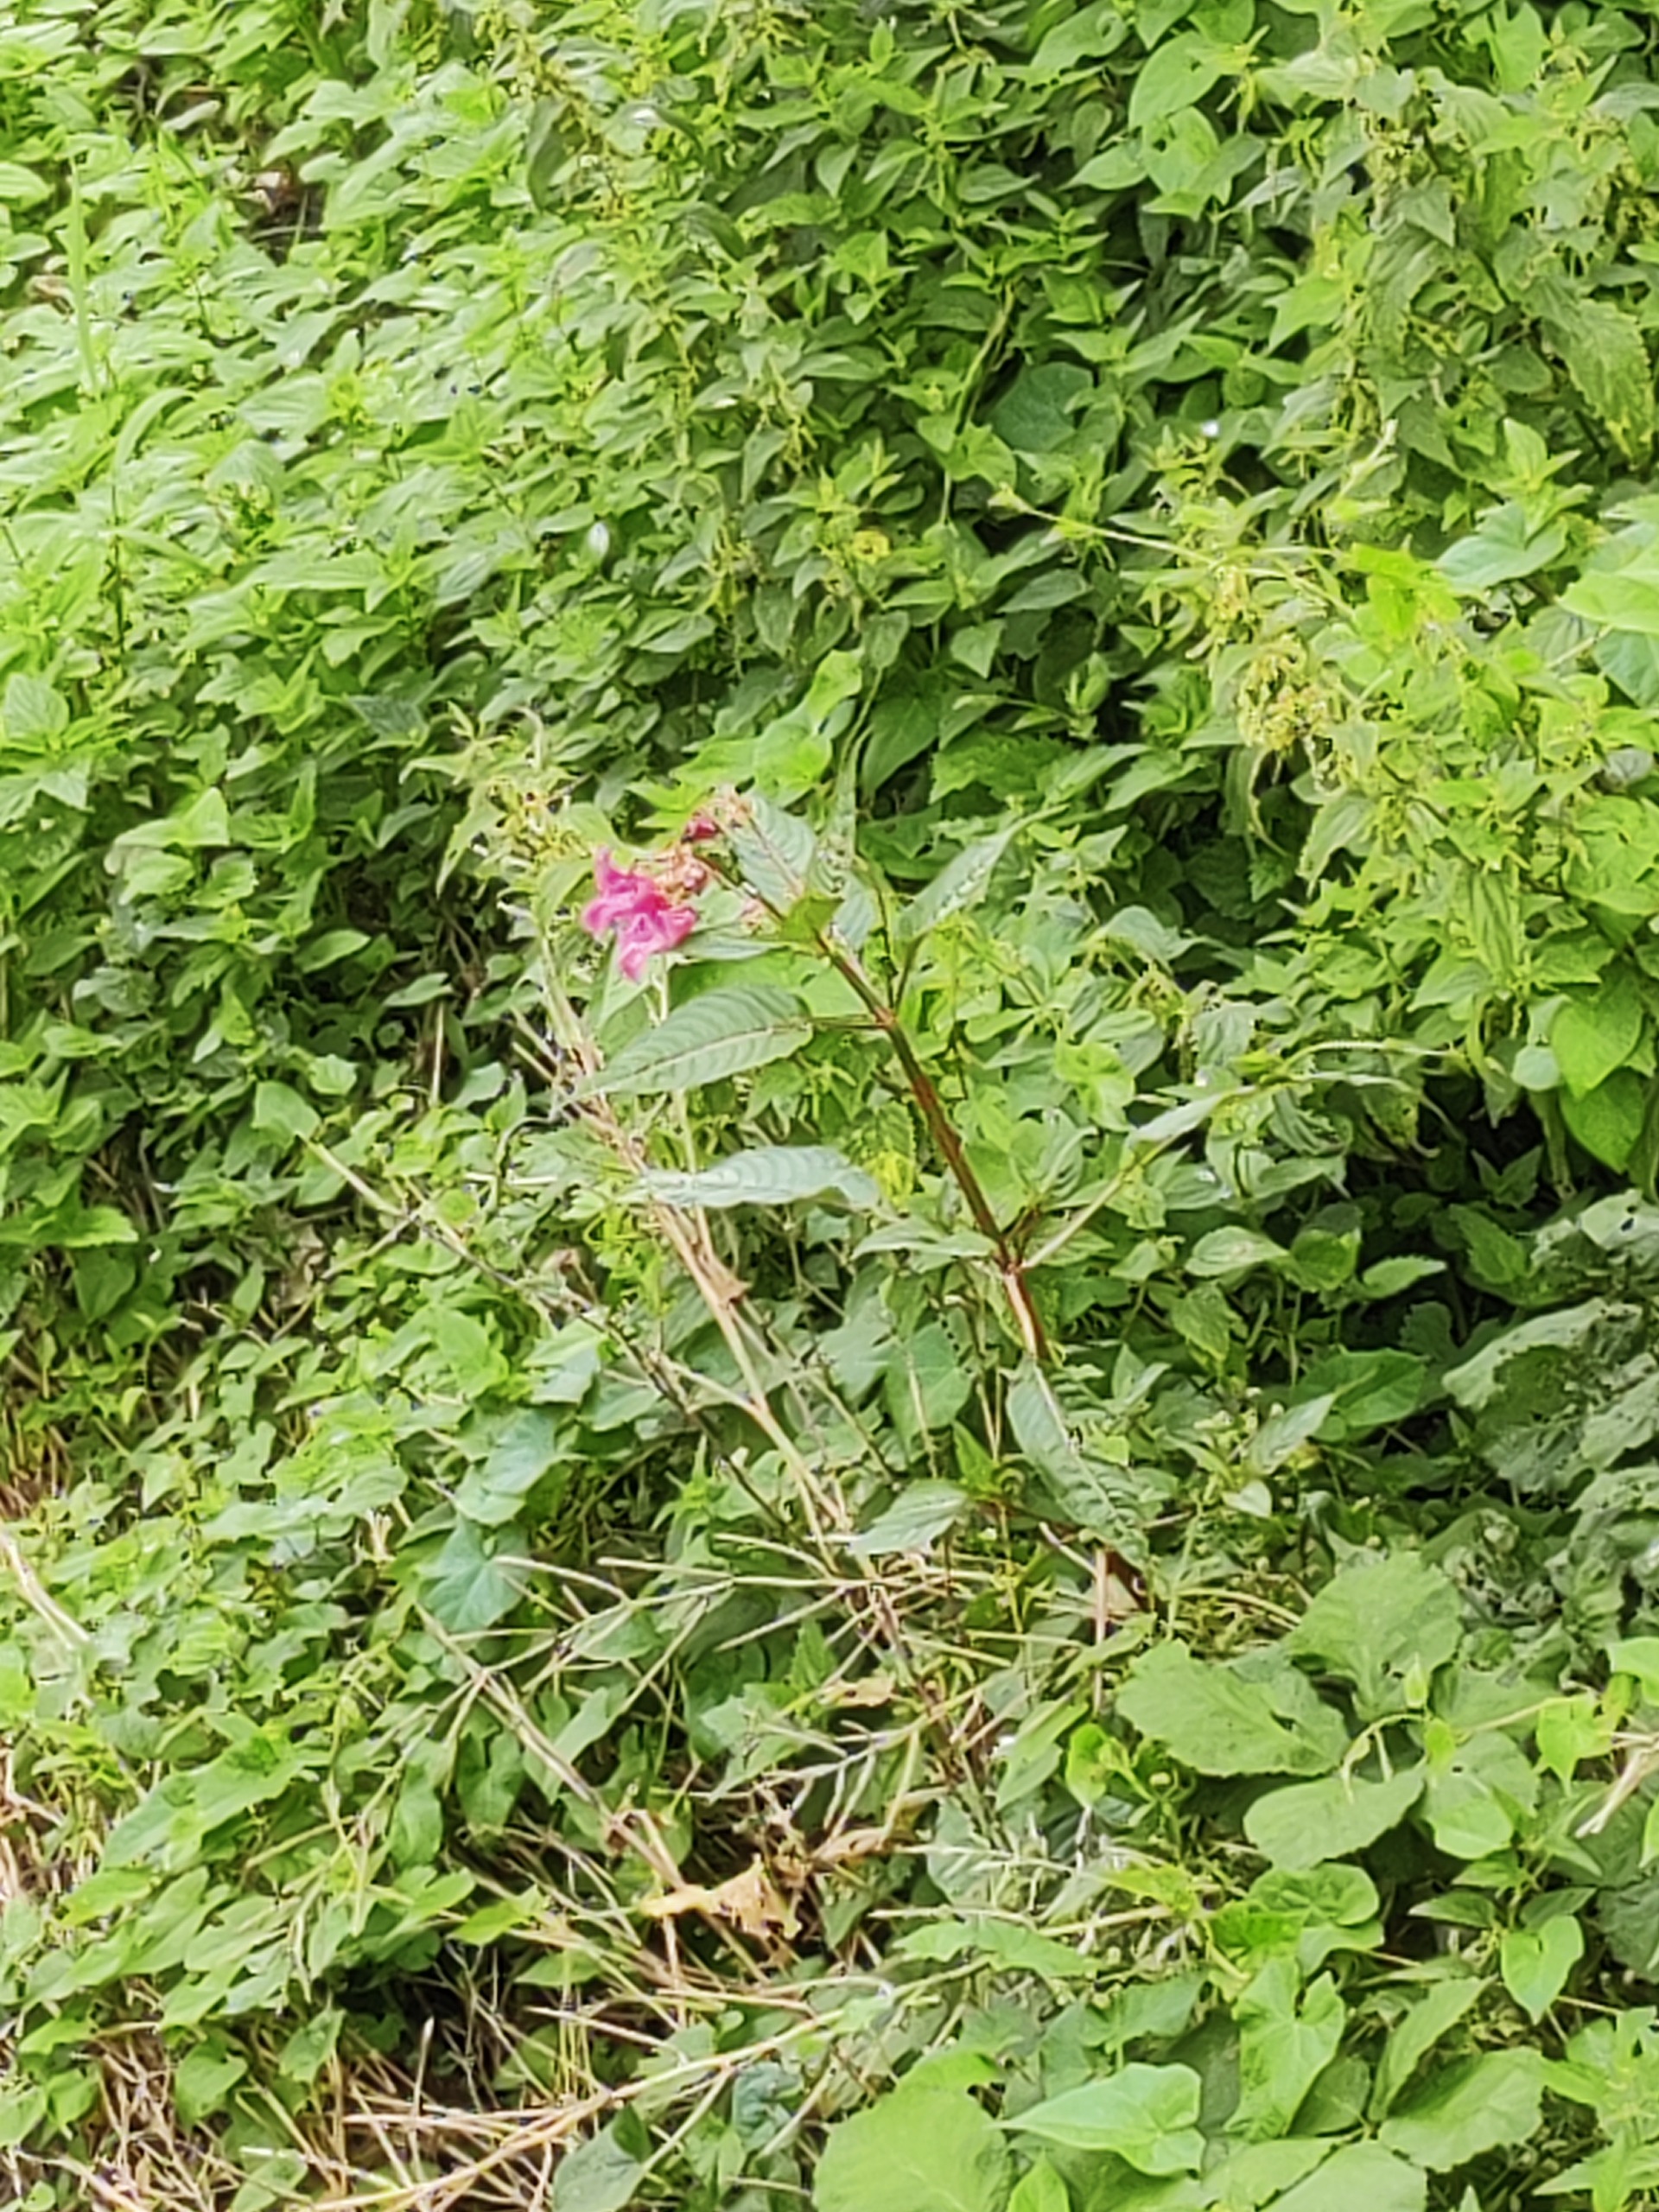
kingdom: Plantae
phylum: Tracheophyta
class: Magnoliopsida
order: Ericales
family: Balsaminaceae
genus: Impatiens
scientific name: Impatiens glandulifera
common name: Kæmpe-balsamin
